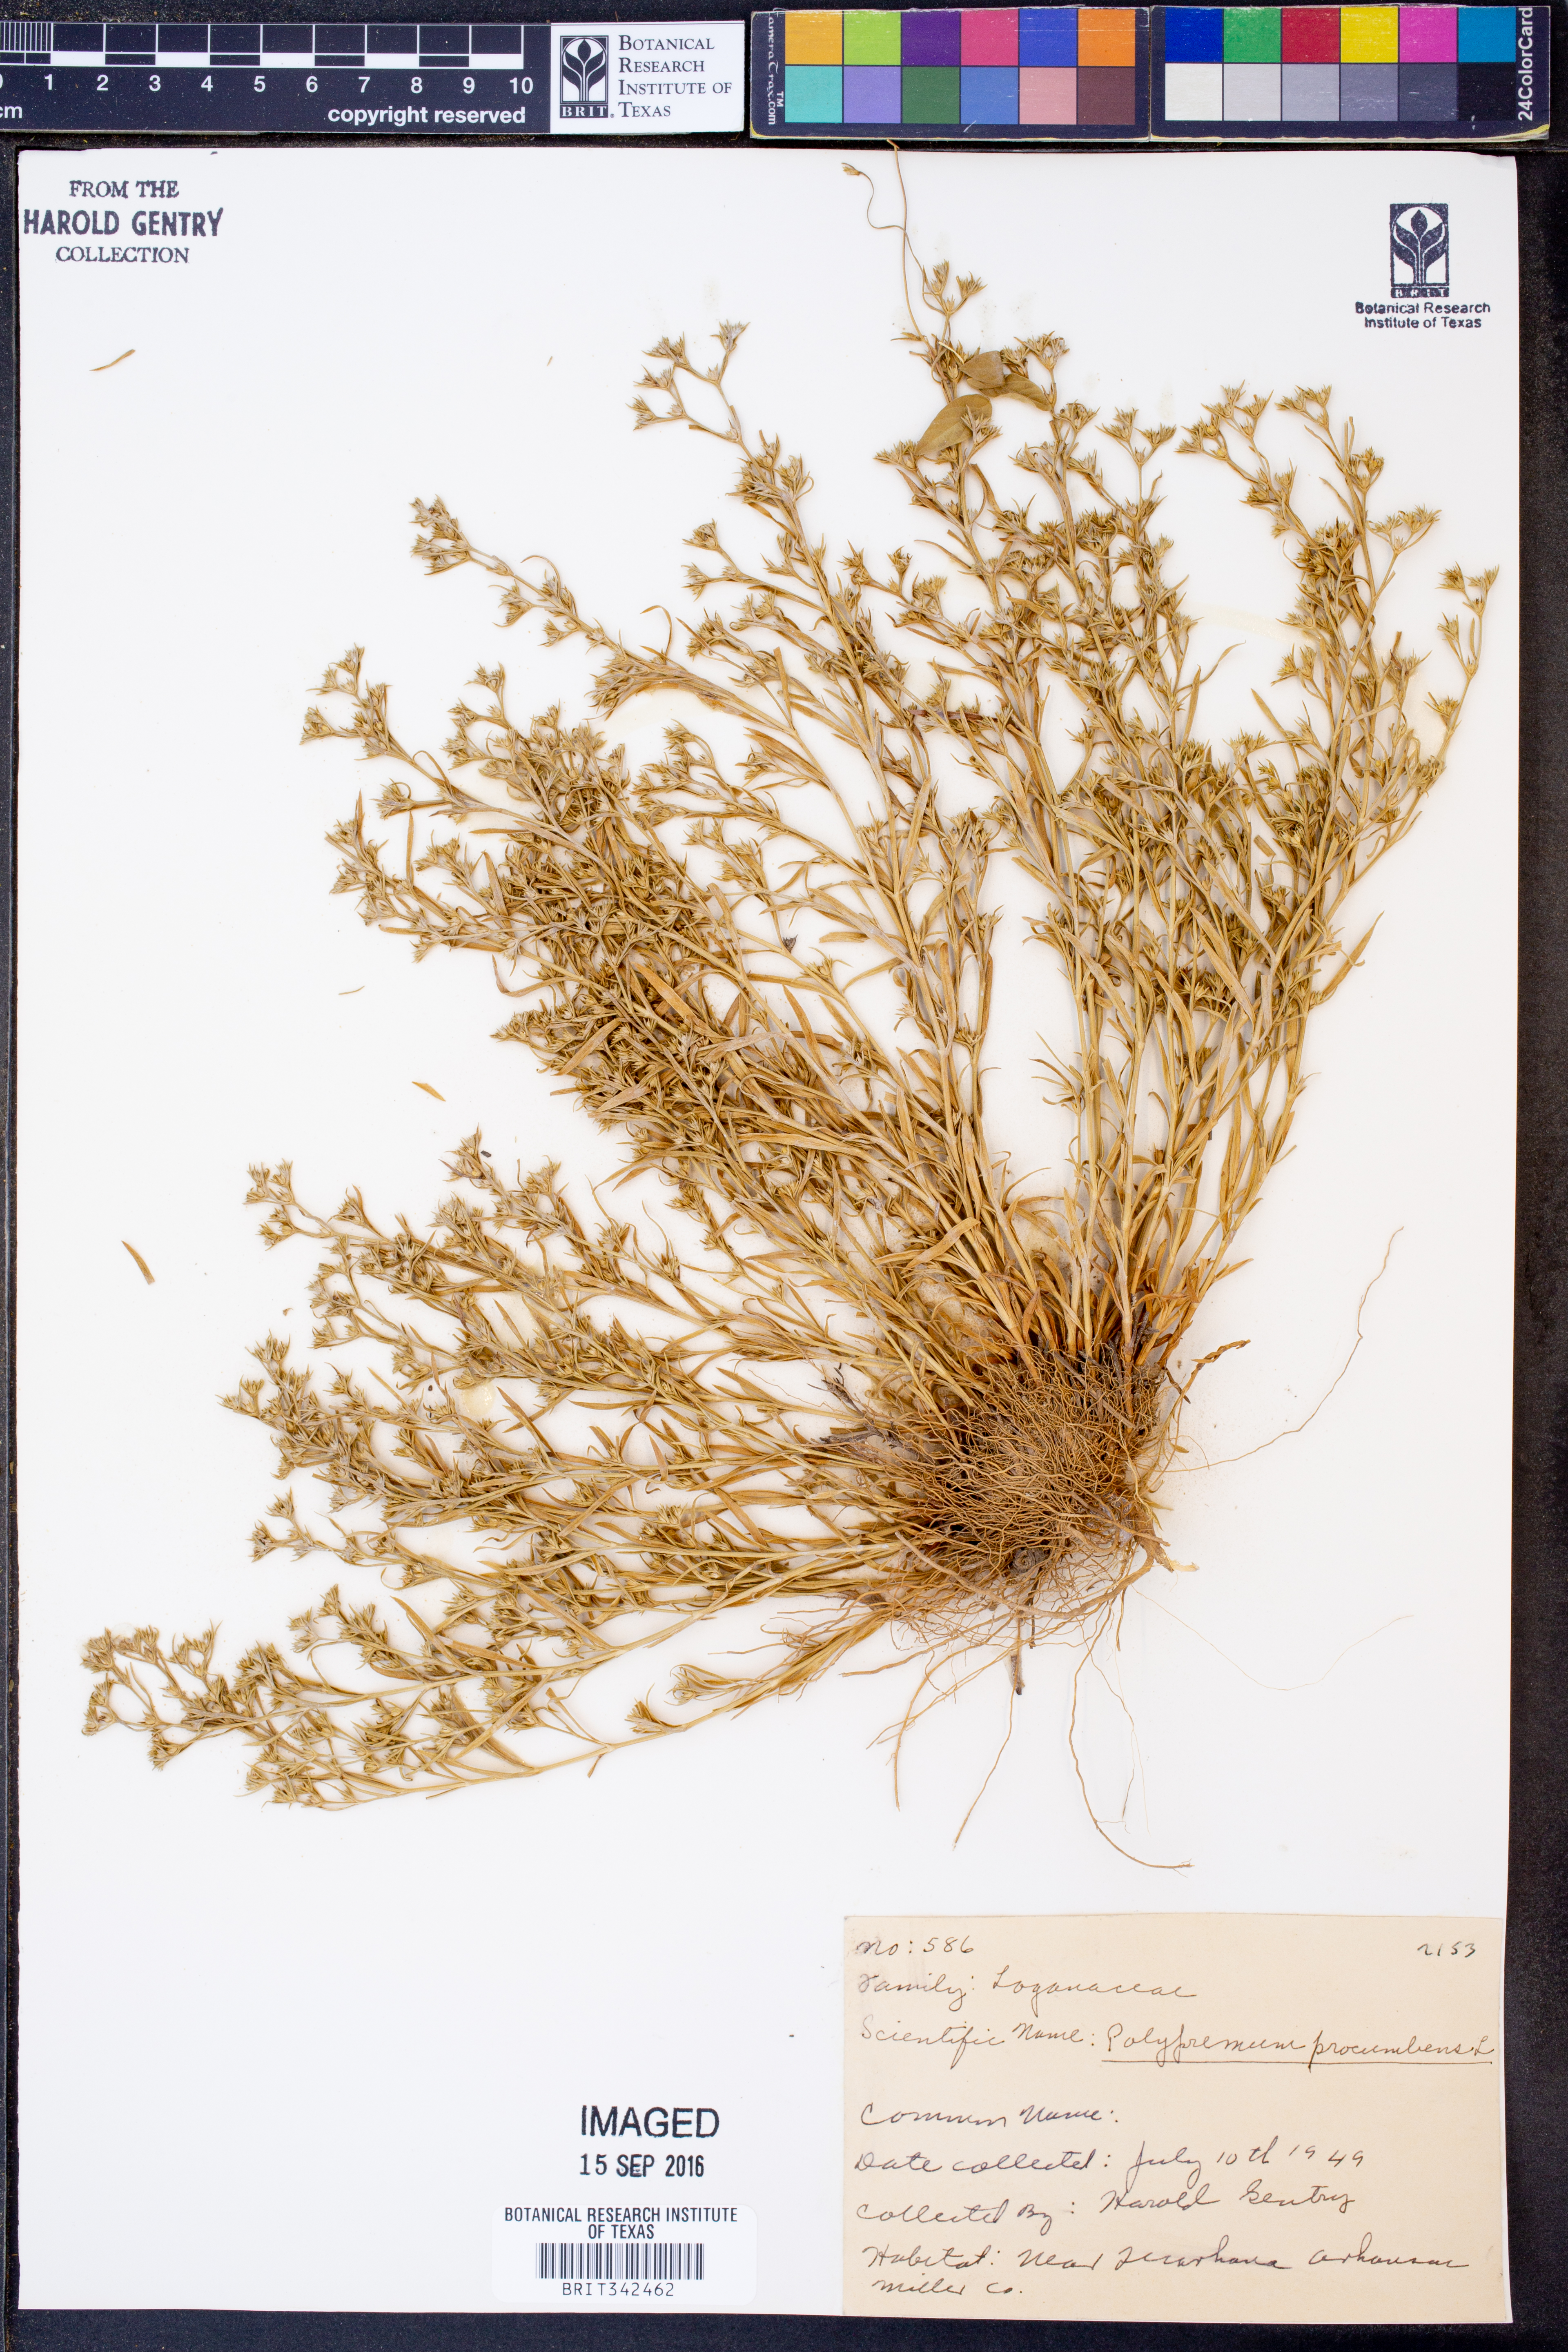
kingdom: Plantae
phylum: Tracheophyta
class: Magnoliopsida
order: Lamiales
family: Tetrachondraceae
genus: Polypremum
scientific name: Polypremum procumbens
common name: Juniper-leaf
